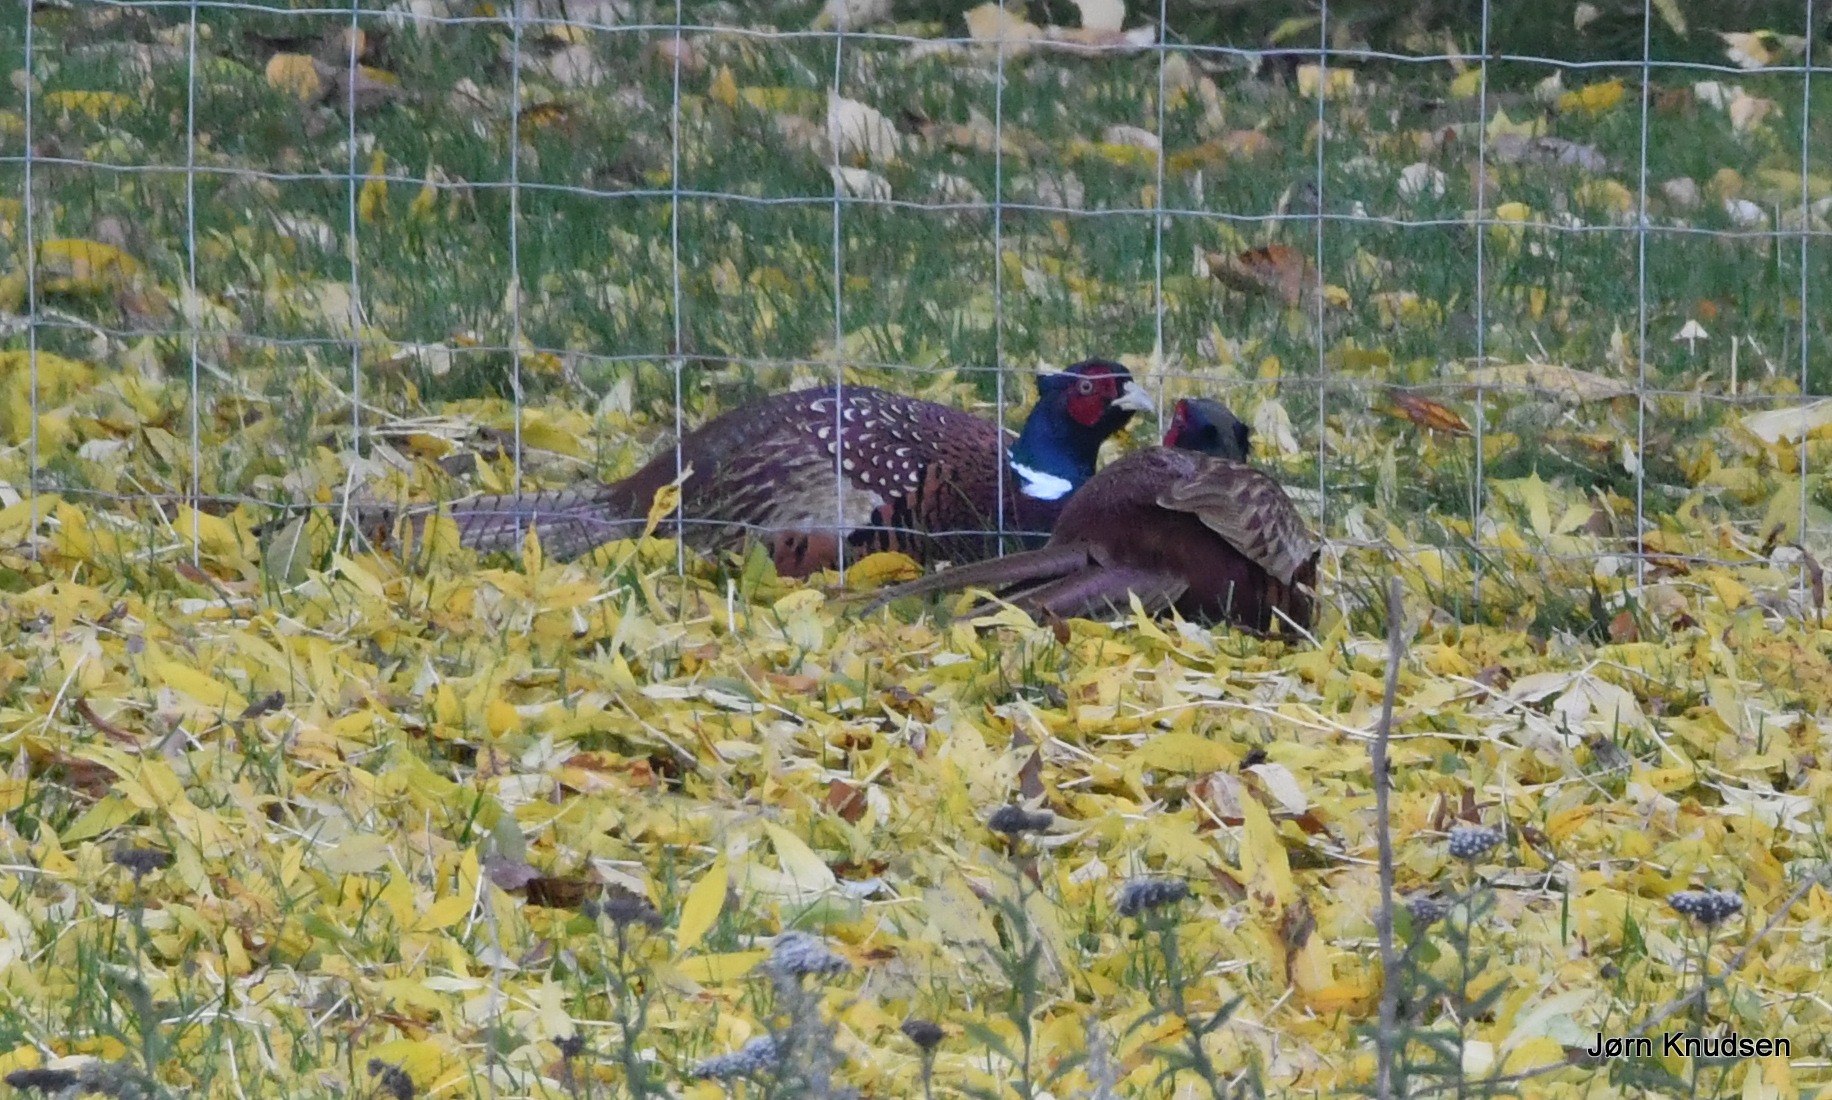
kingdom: Animalia
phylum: Chordata
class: Aves
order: Galliformes
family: Phasianidae
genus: Phasianus
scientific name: Phasianus colchicus
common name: Fasan
